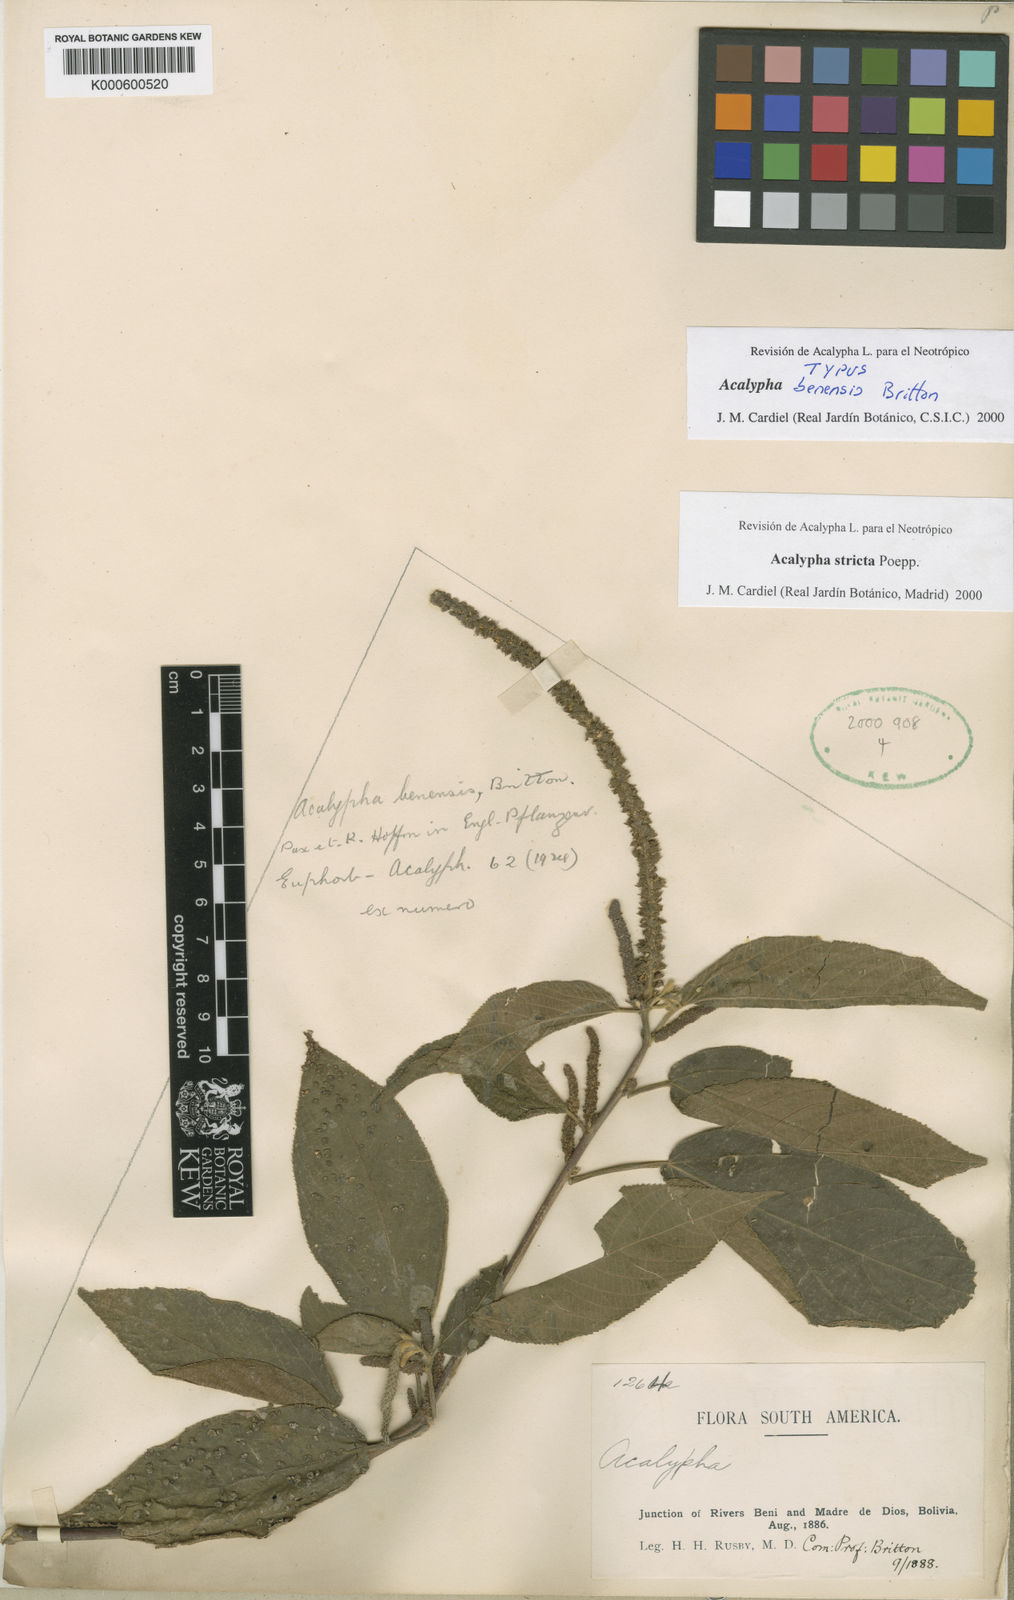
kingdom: Plantae
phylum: Tracheophyta
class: Magnoliopsida
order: Malpighiales
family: Euphorbiaceae
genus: Acalypha
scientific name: Acalypha stricta
